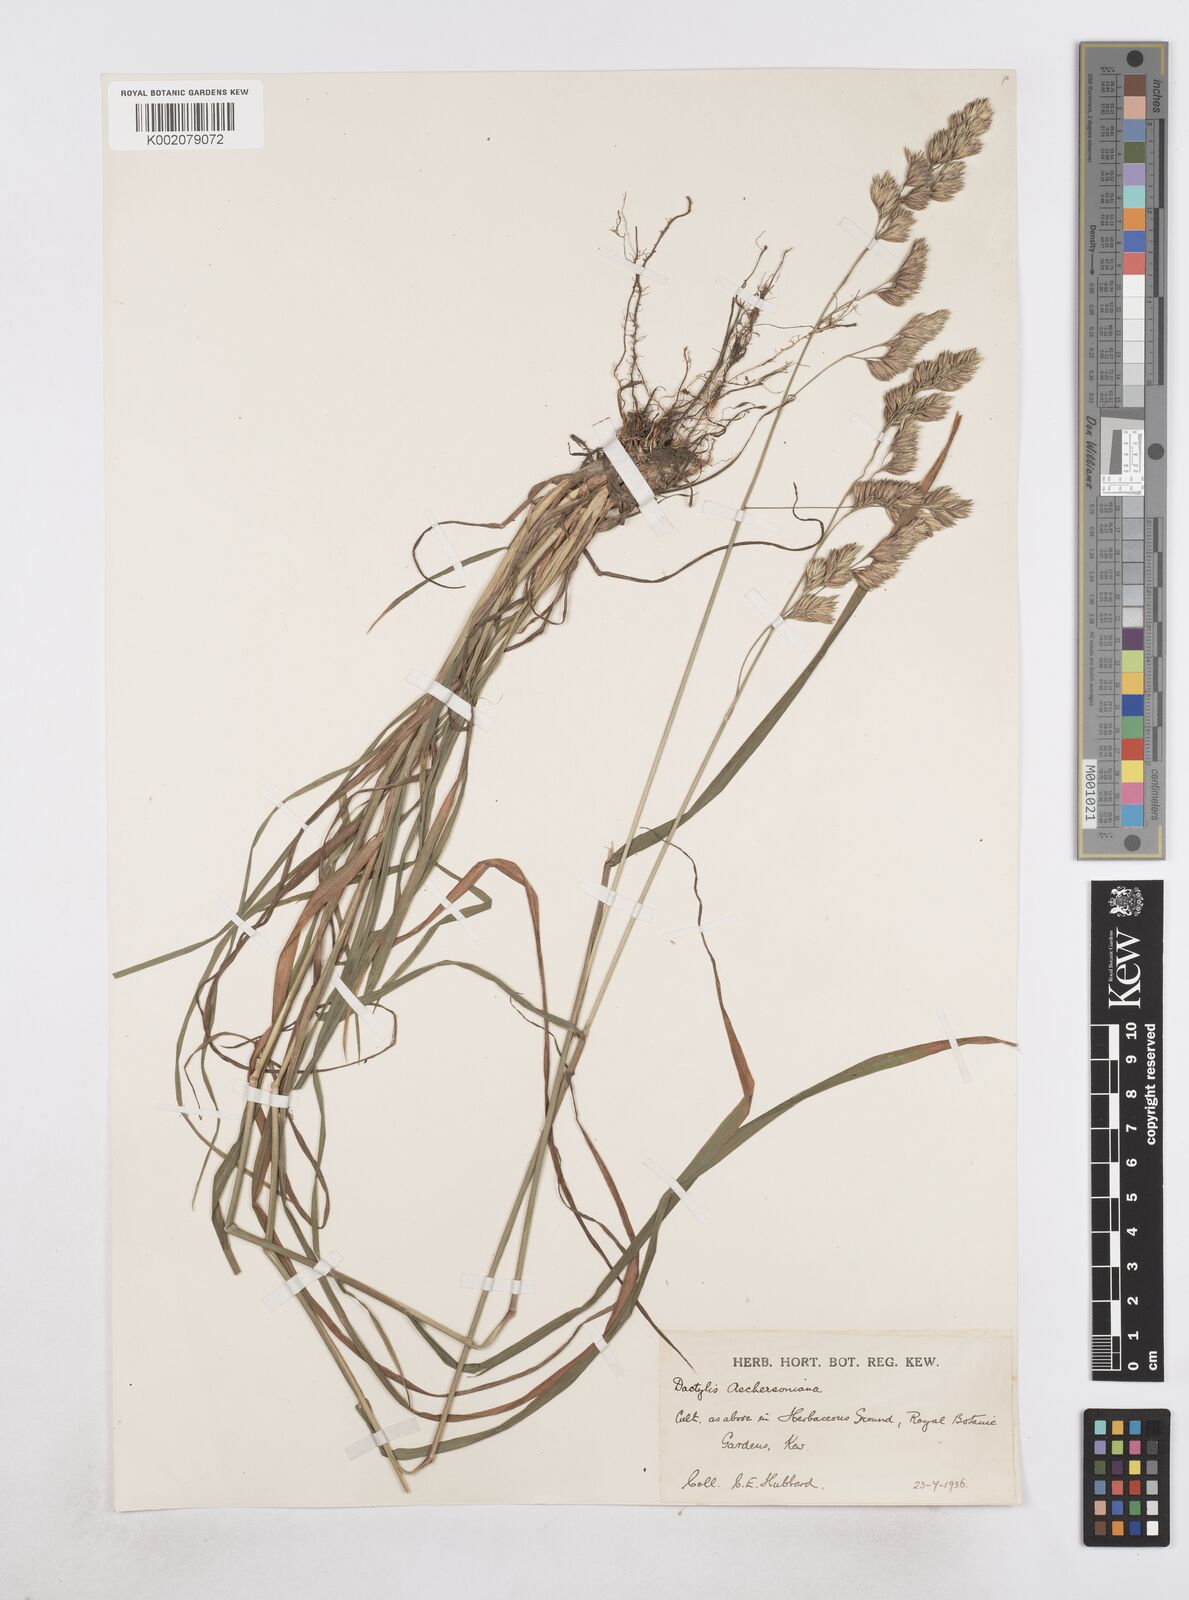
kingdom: Plantae
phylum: Tracheophyta
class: Liliopsida
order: Poales
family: Poaceae
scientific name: Poaceae
